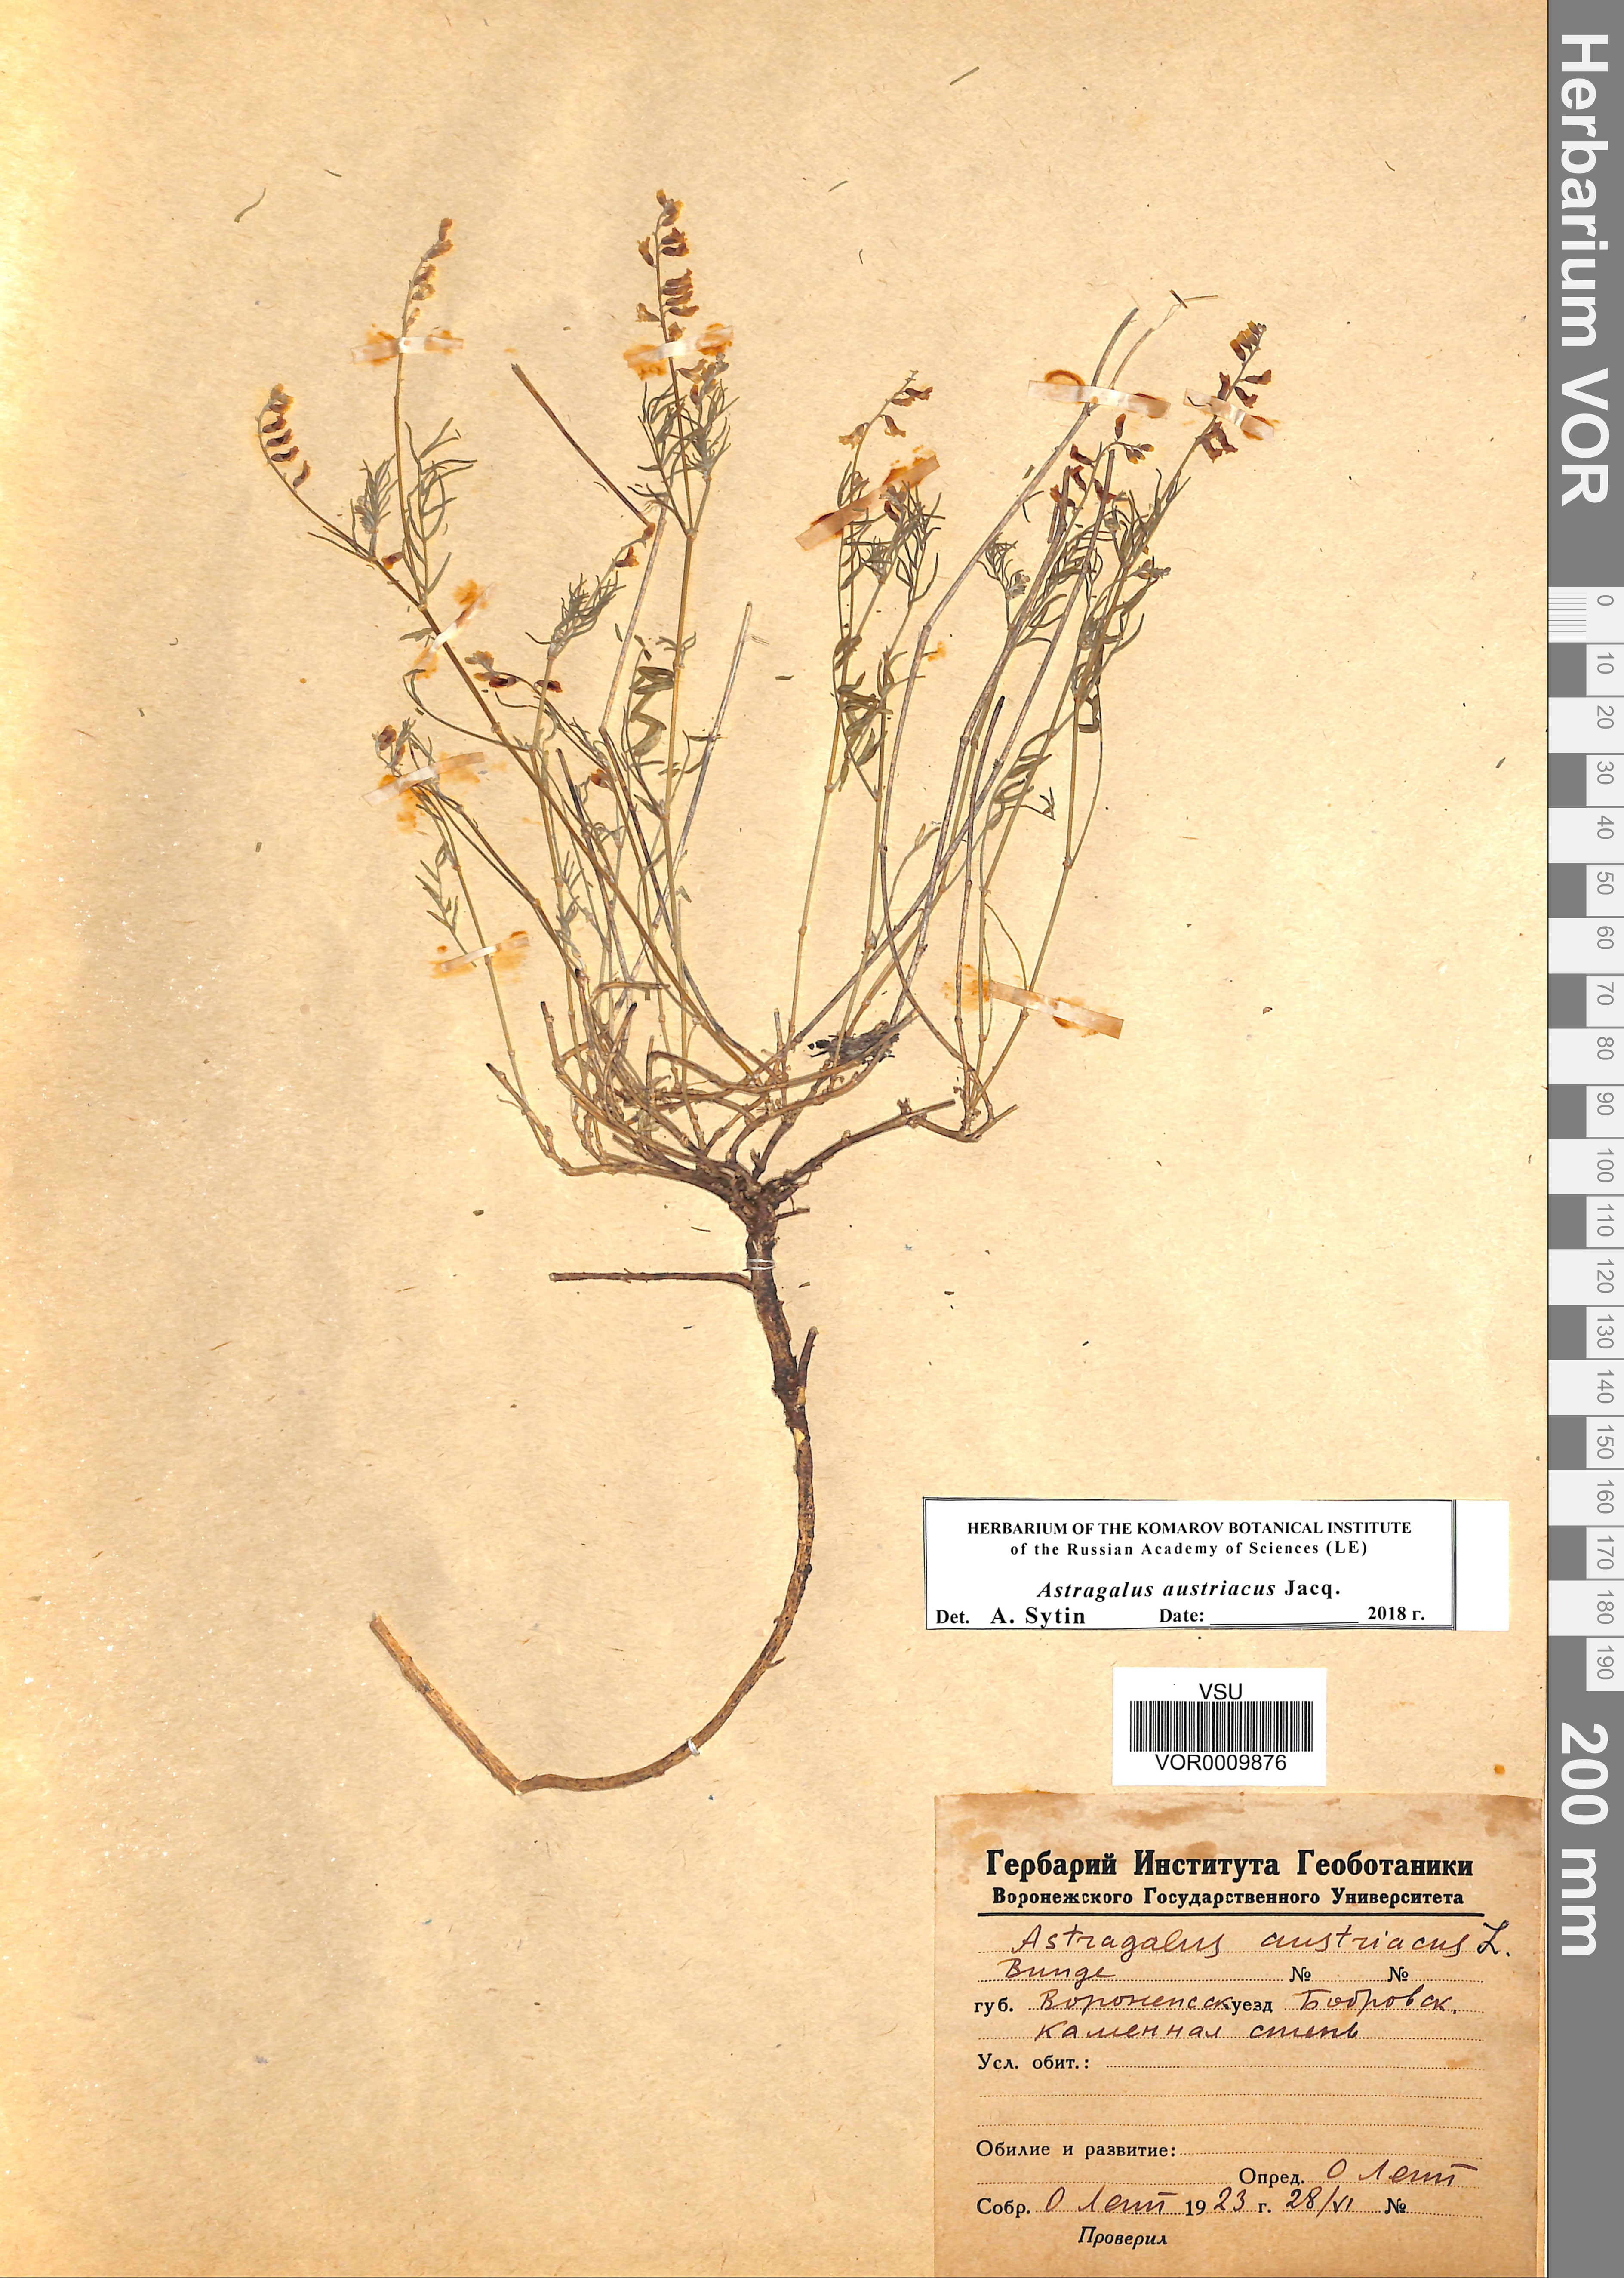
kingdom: Plantae
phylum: Tracheophyta
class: Magnoliopsida
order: Fabales
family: Fabaceae
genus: Astragalus
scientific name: Astragalus austriacus
